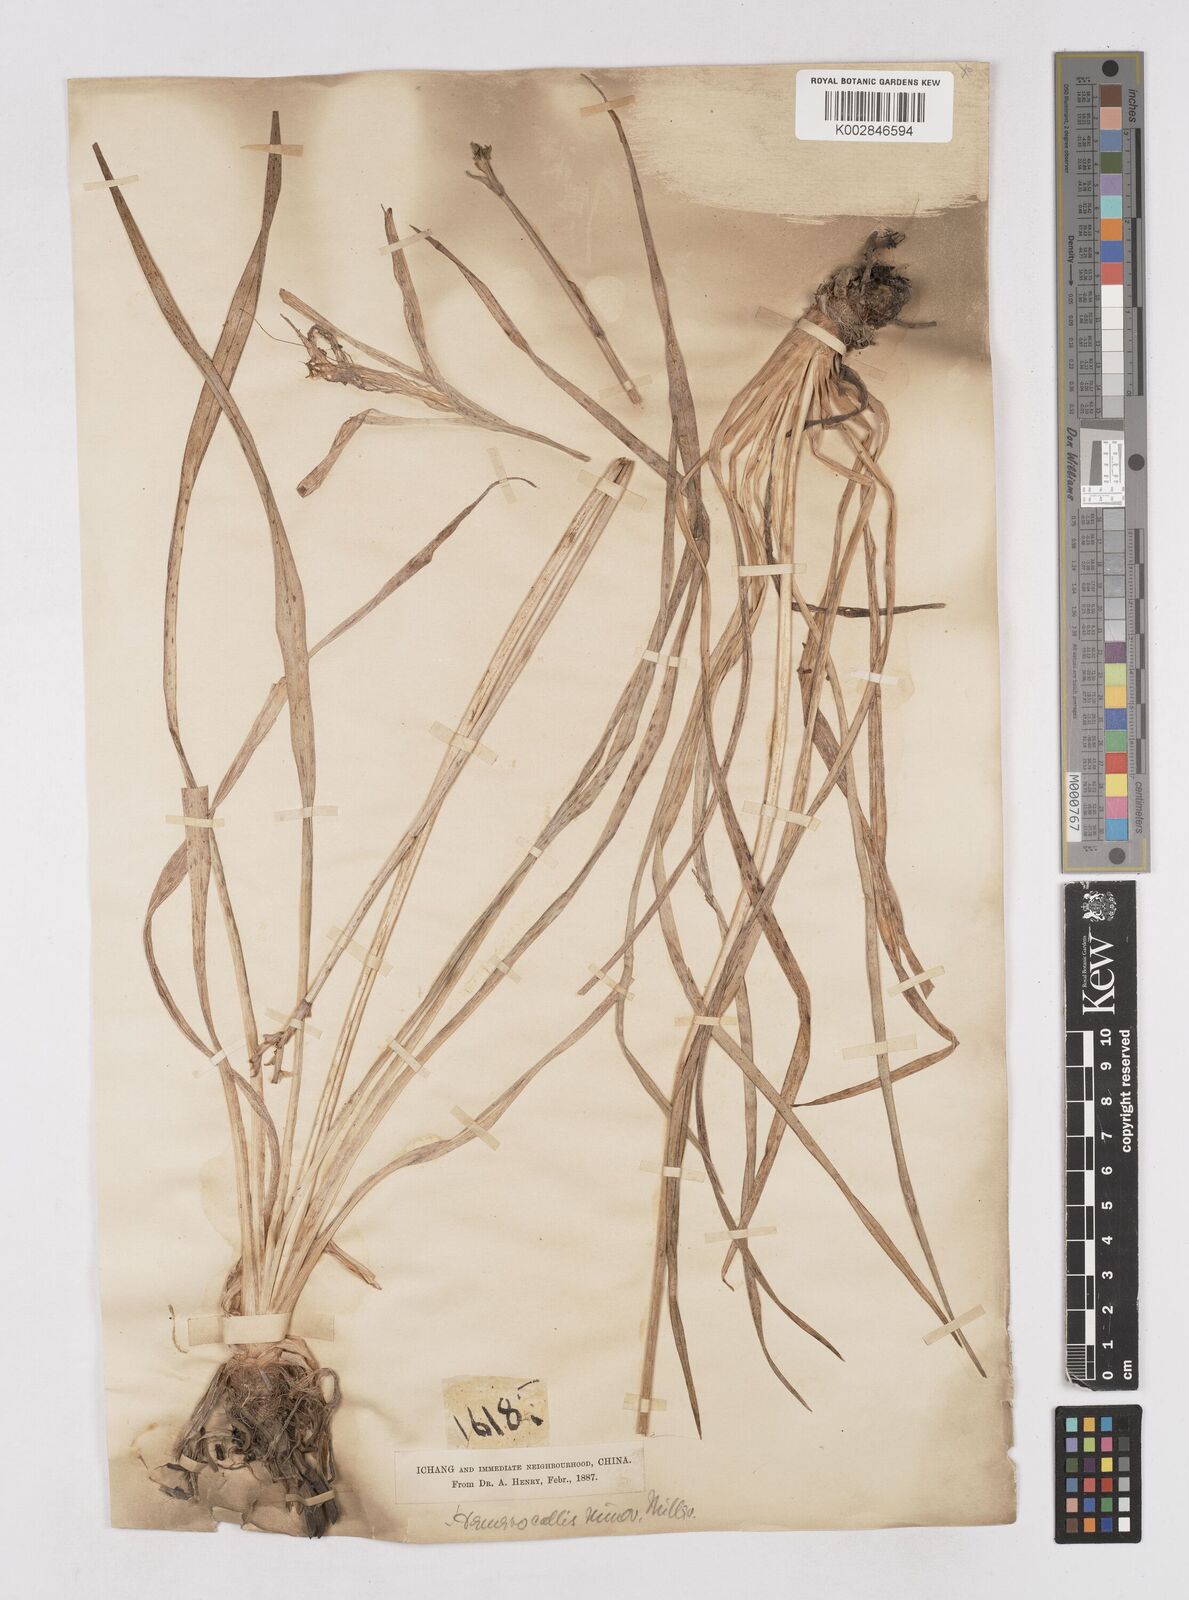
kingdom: Plantae
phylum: Tracheophyta
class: Liliopsida
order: Asparagales
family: Asphodelaceae
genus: Hemerocallis
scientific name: Hemerocallis minor
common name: Small daylily
